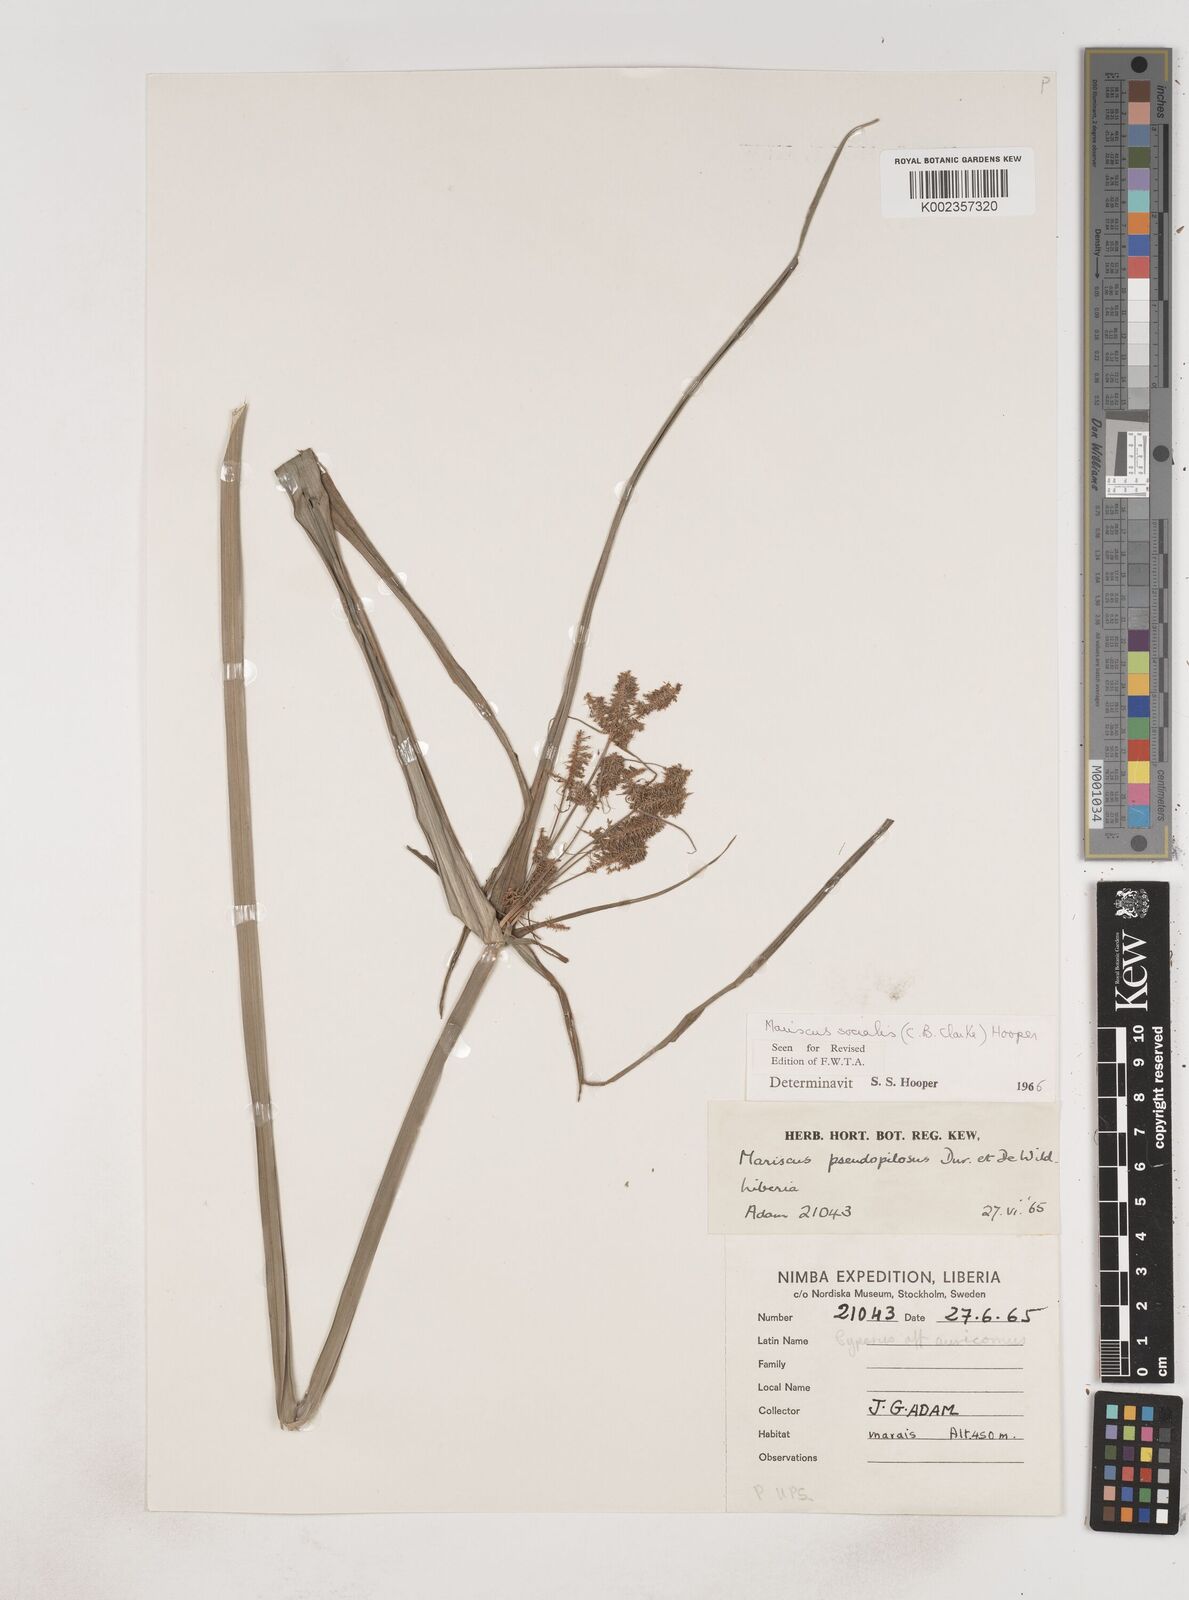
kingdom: Plantae
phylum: Tracheophyta
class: Liliopsida
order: Poales
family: Cyperaceae
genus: Cyperus
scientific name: Cyperus pseudopilosus
